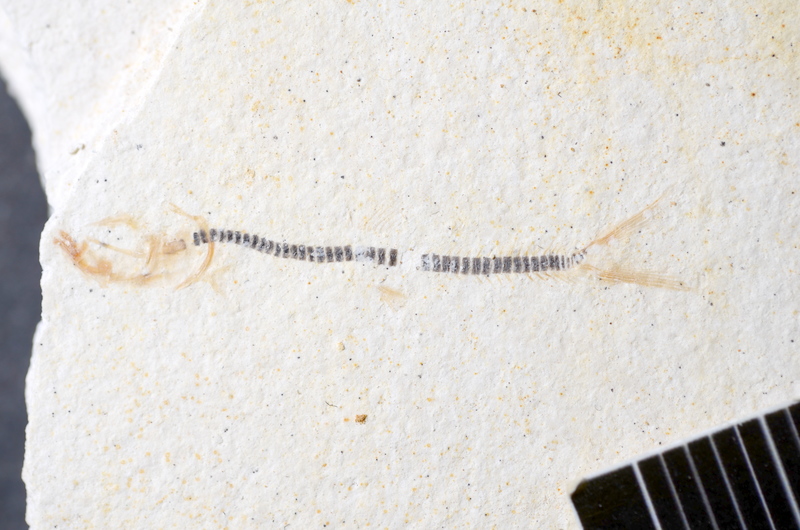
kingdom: Animalia
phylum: Chordata
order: Salmoniformes
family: Orthogonikleithridae
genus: Orthogonikleithrus
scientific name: Orthogonikleithrus hoelli
